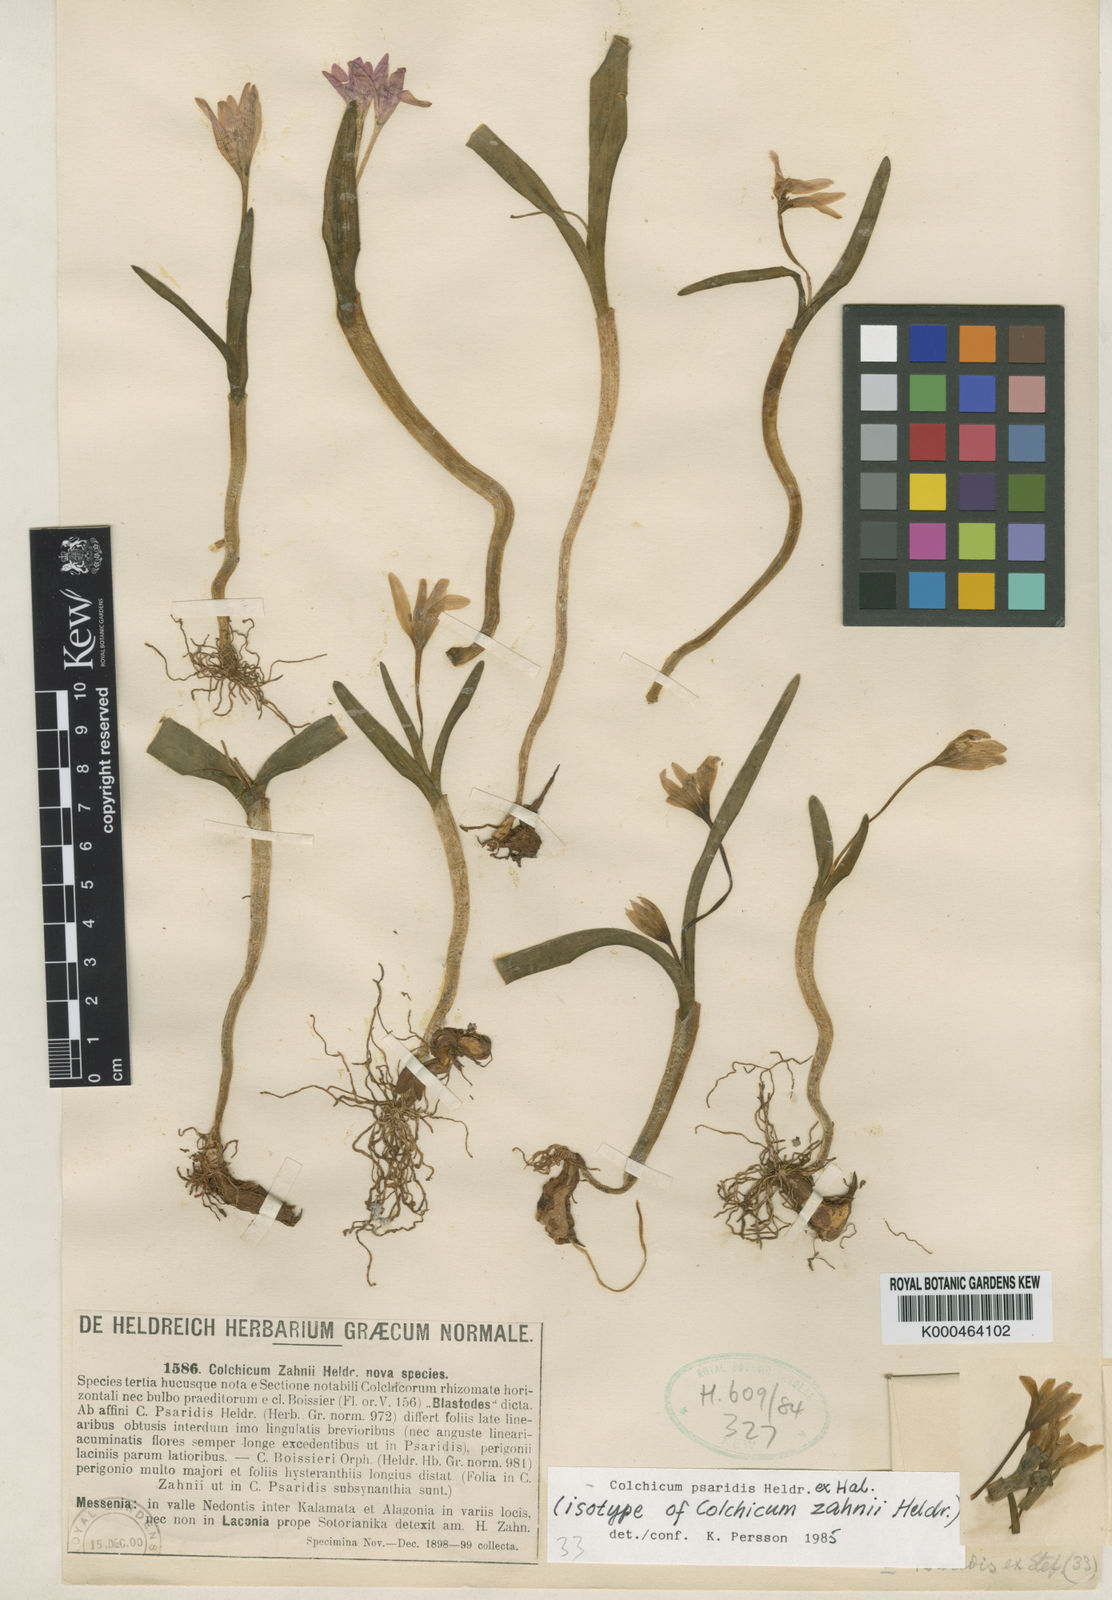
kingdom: Plantae
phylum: Tracheophyta
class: Liliopsida
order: Liliales
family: Colchicaceae
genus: Colchicum
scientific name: Colchicum zahnii
